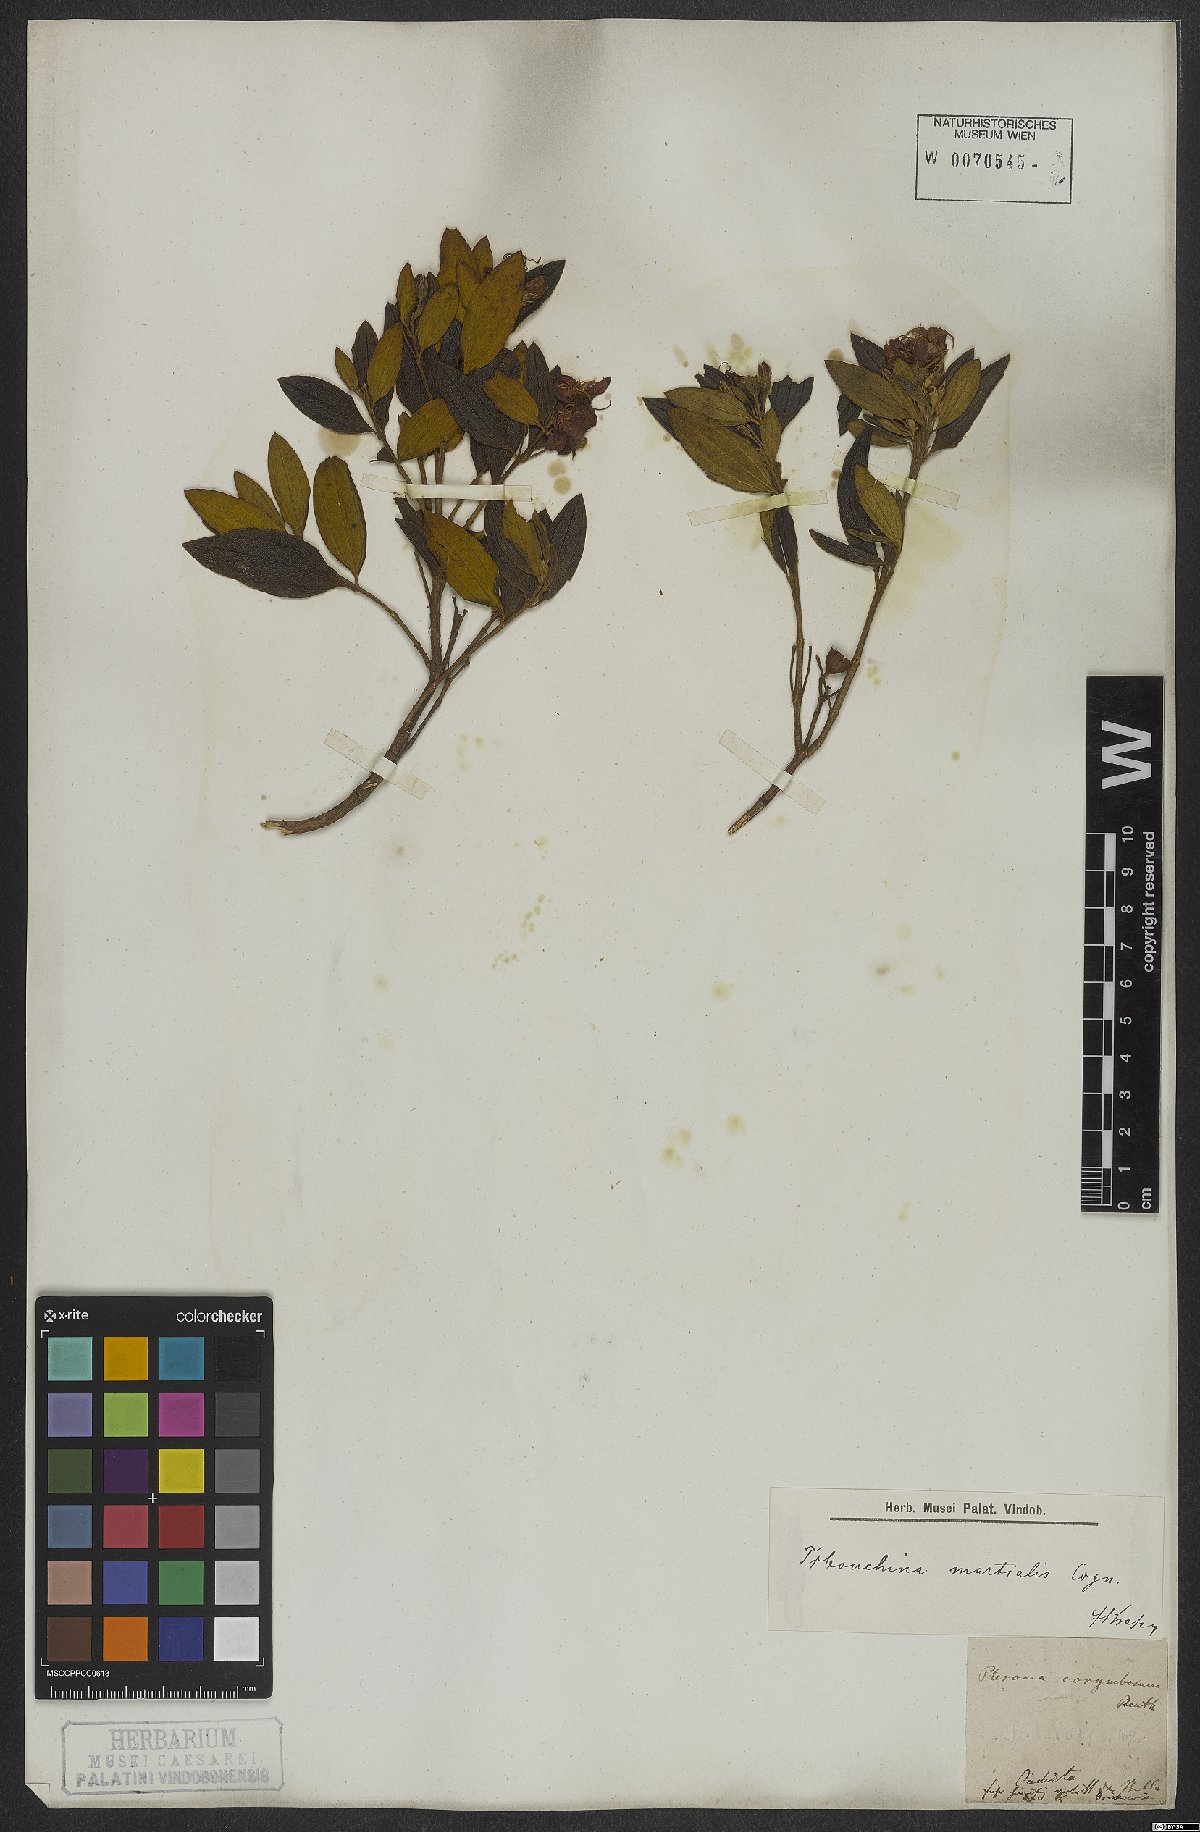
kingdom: Plantae
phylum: Tracheophyta
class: Magnoliopsida
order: Myrtales
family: Melastomataceae
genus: Pleroma
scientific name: Pleroma martiale
